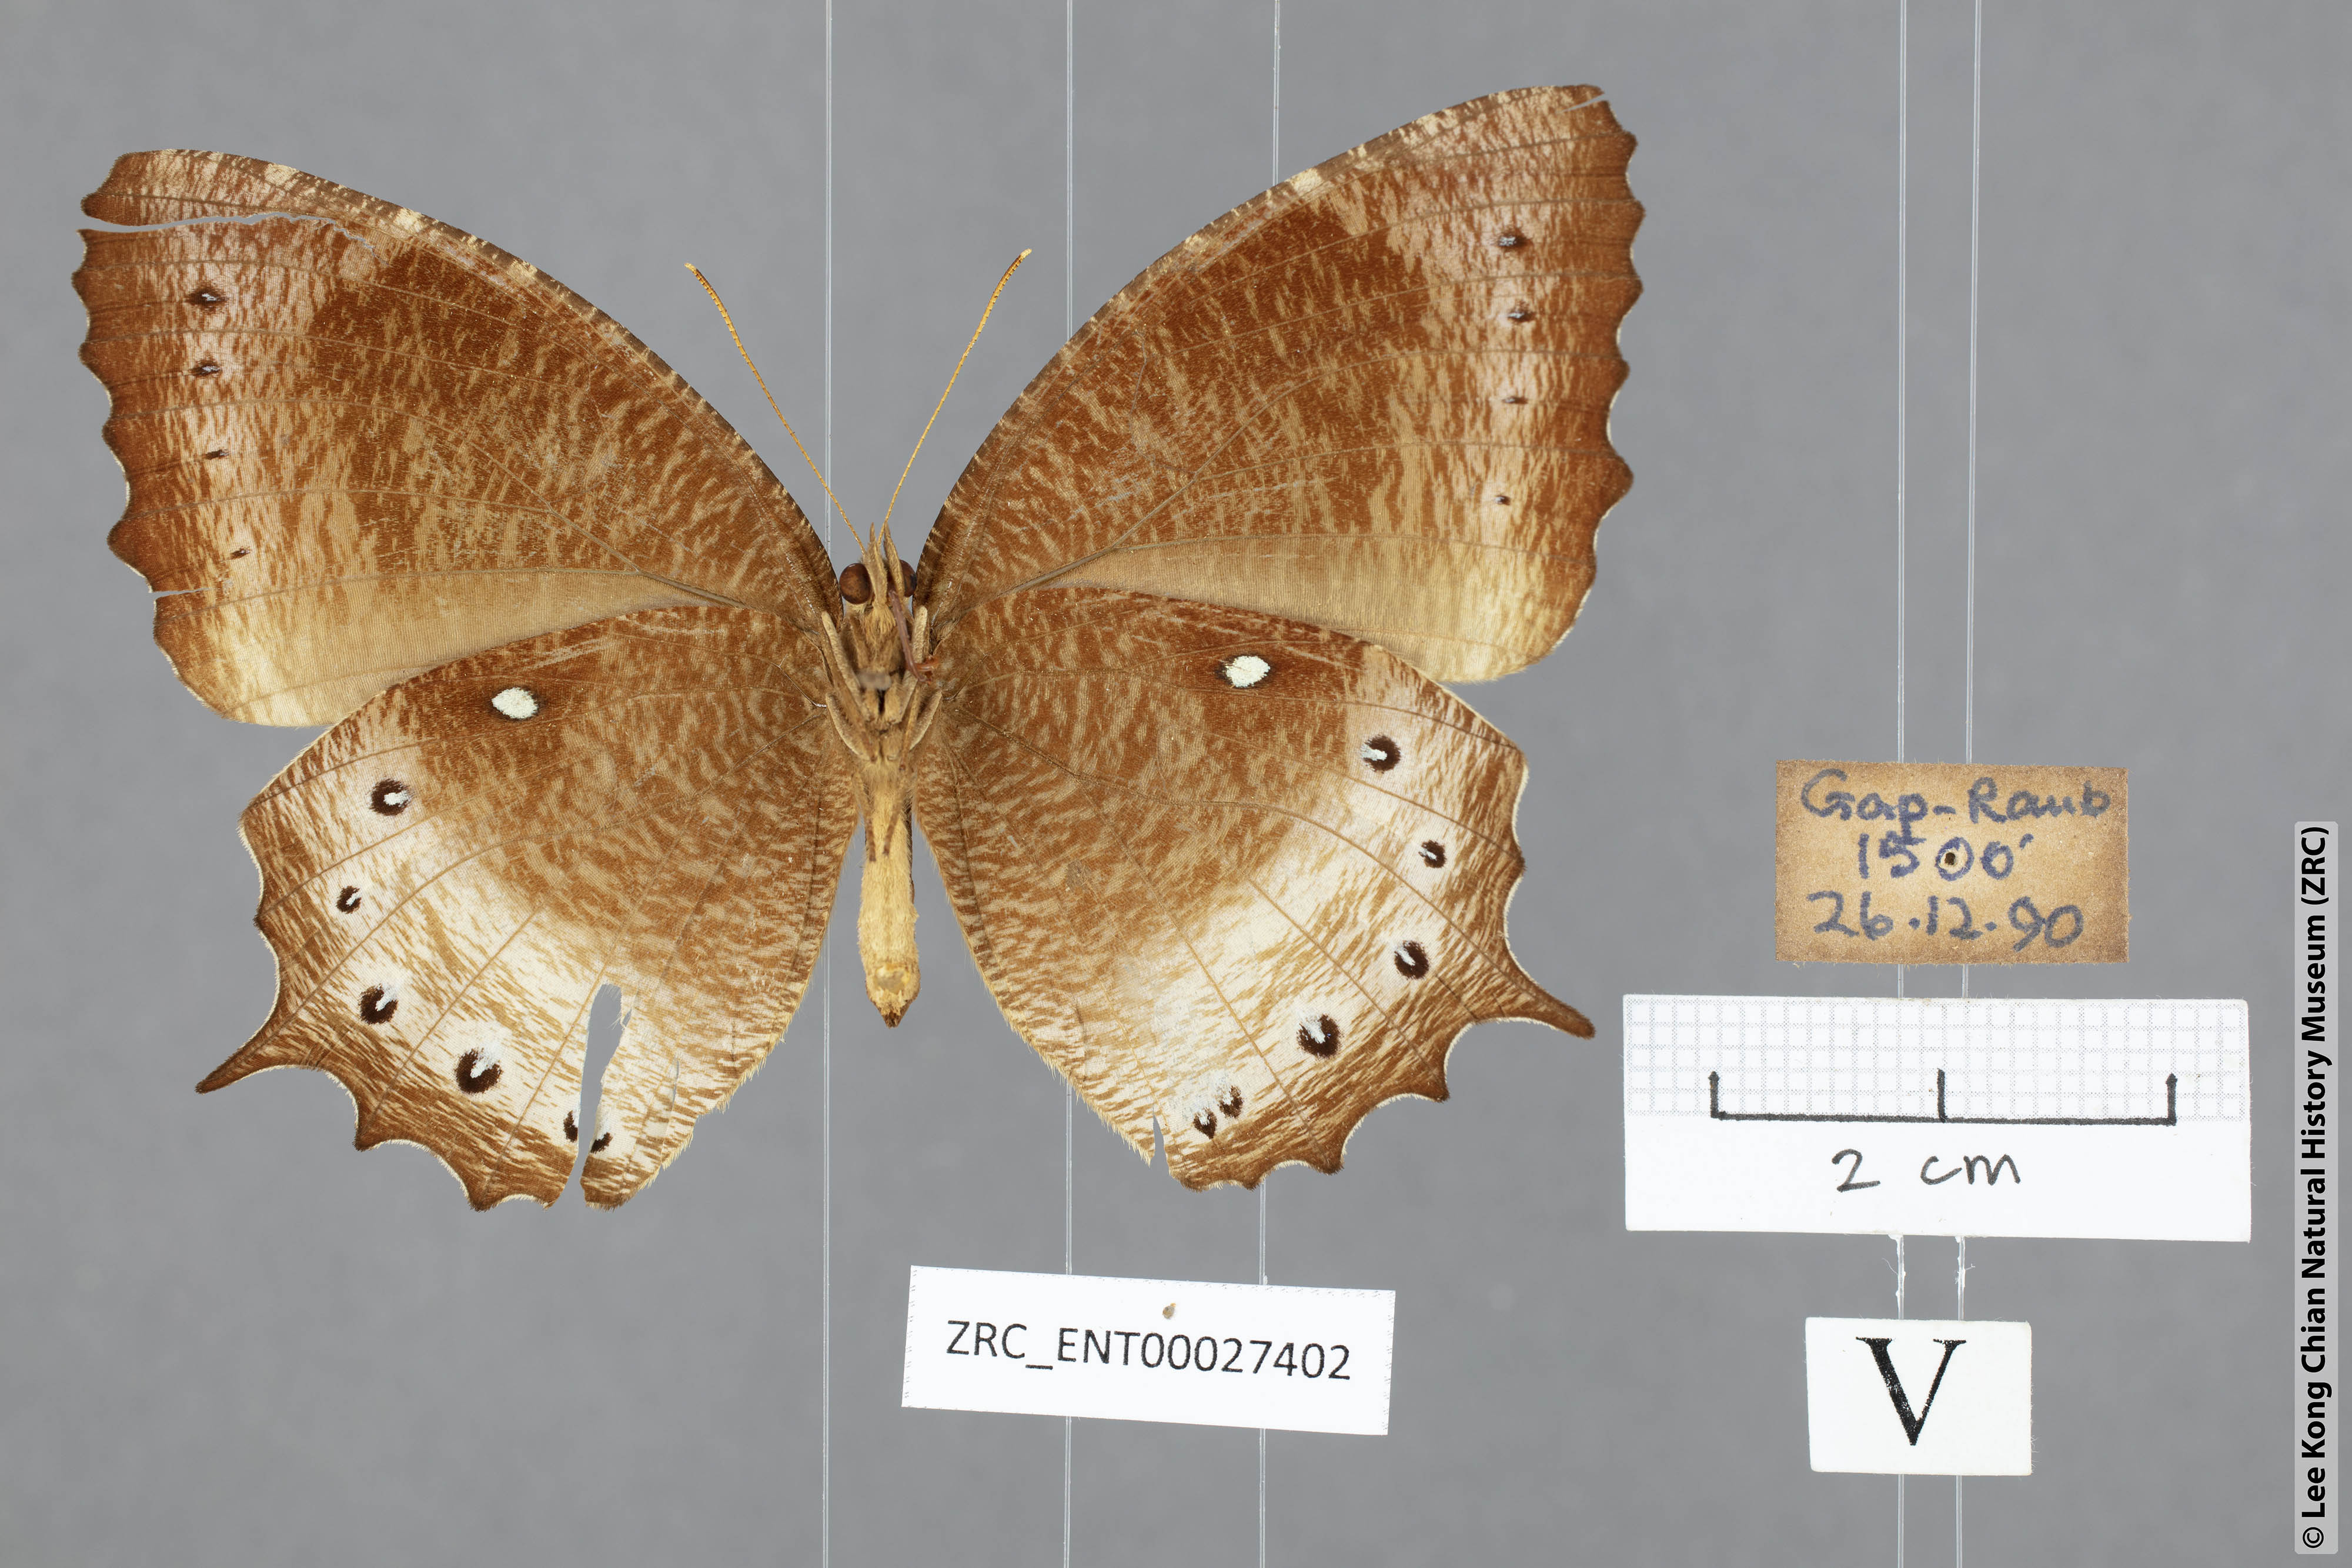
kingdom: Animalia
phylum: Arthropoda
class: Insecta
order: Lepidoptera
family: Nymphalidae
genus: Elymnias
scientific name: Elymnias panthera
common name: Tawny palmfly
